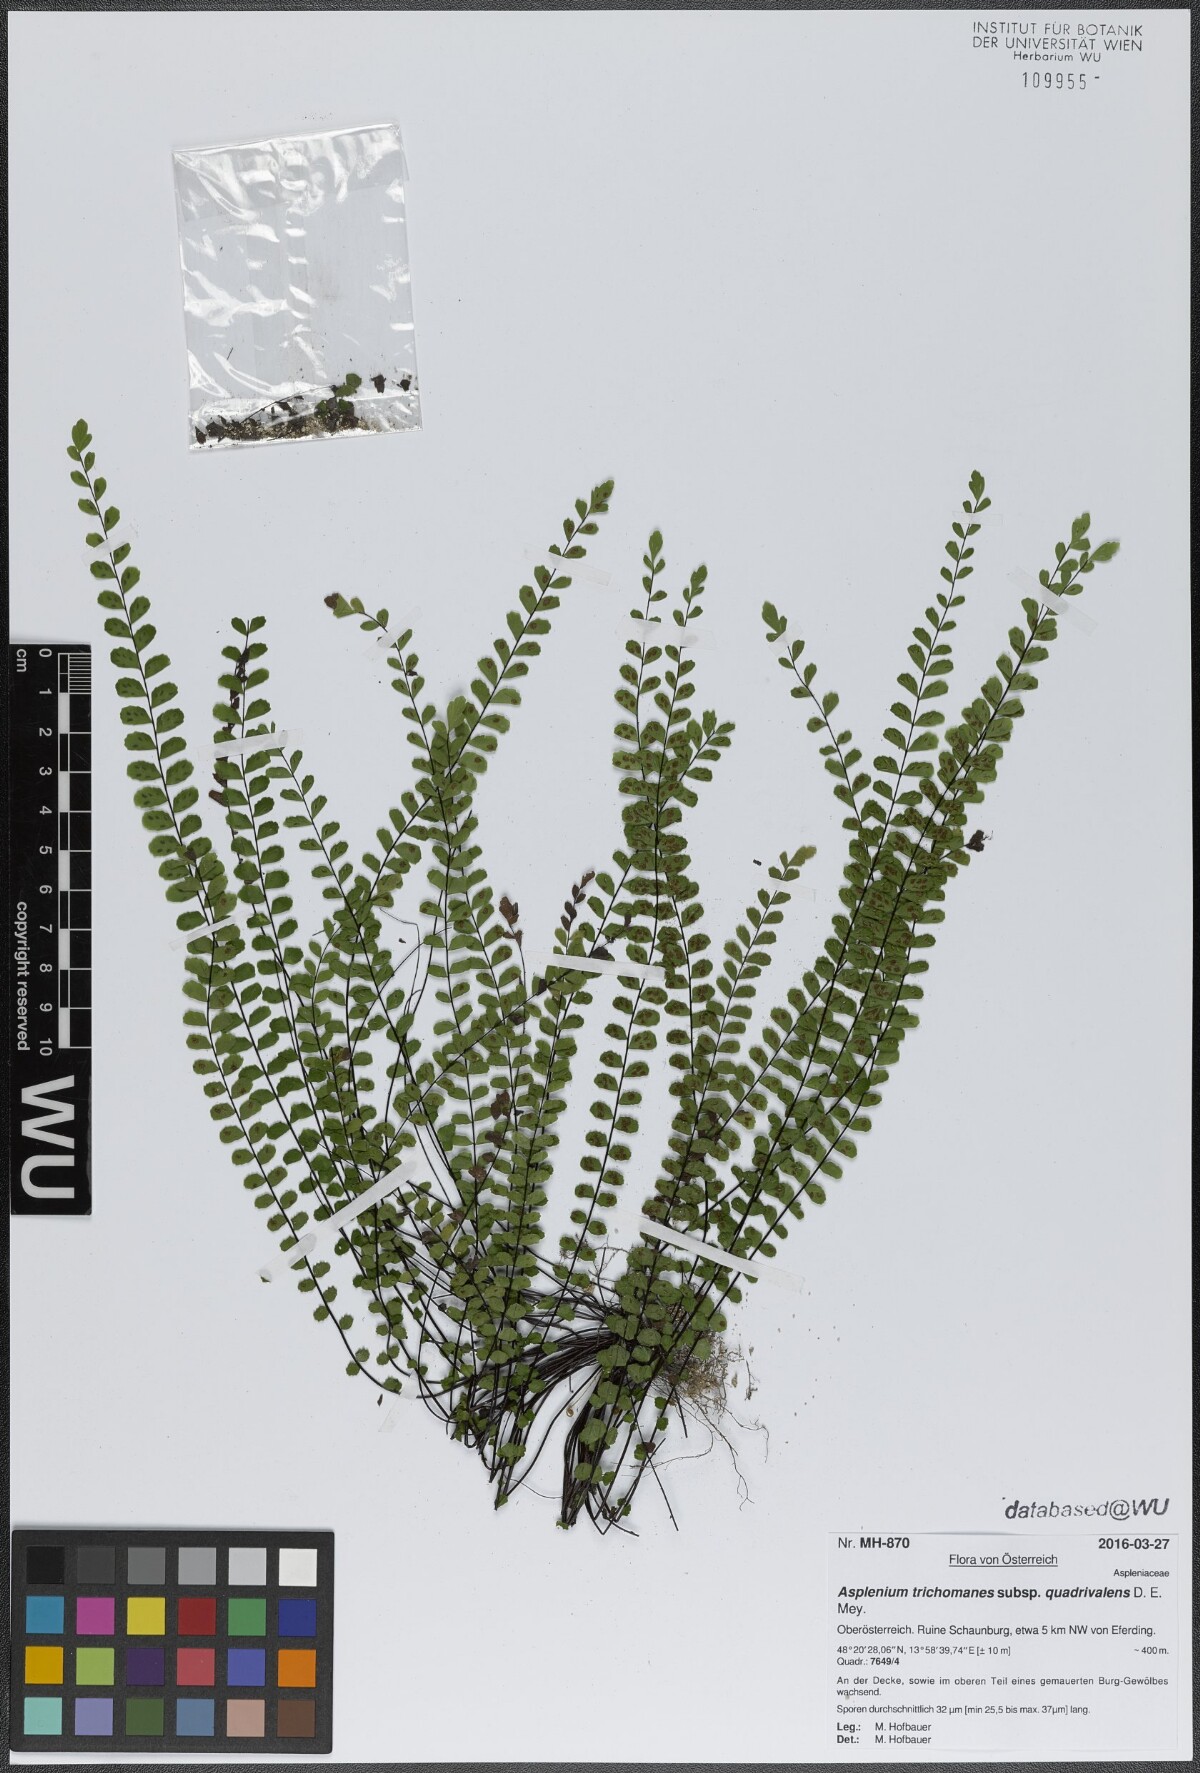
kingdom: Plantae
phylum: Tracheophyta
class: Polypodiopsida
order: Polypodiales
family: Aspleniaceae
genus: Asplenium
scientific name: Asplenium quadrivalens
